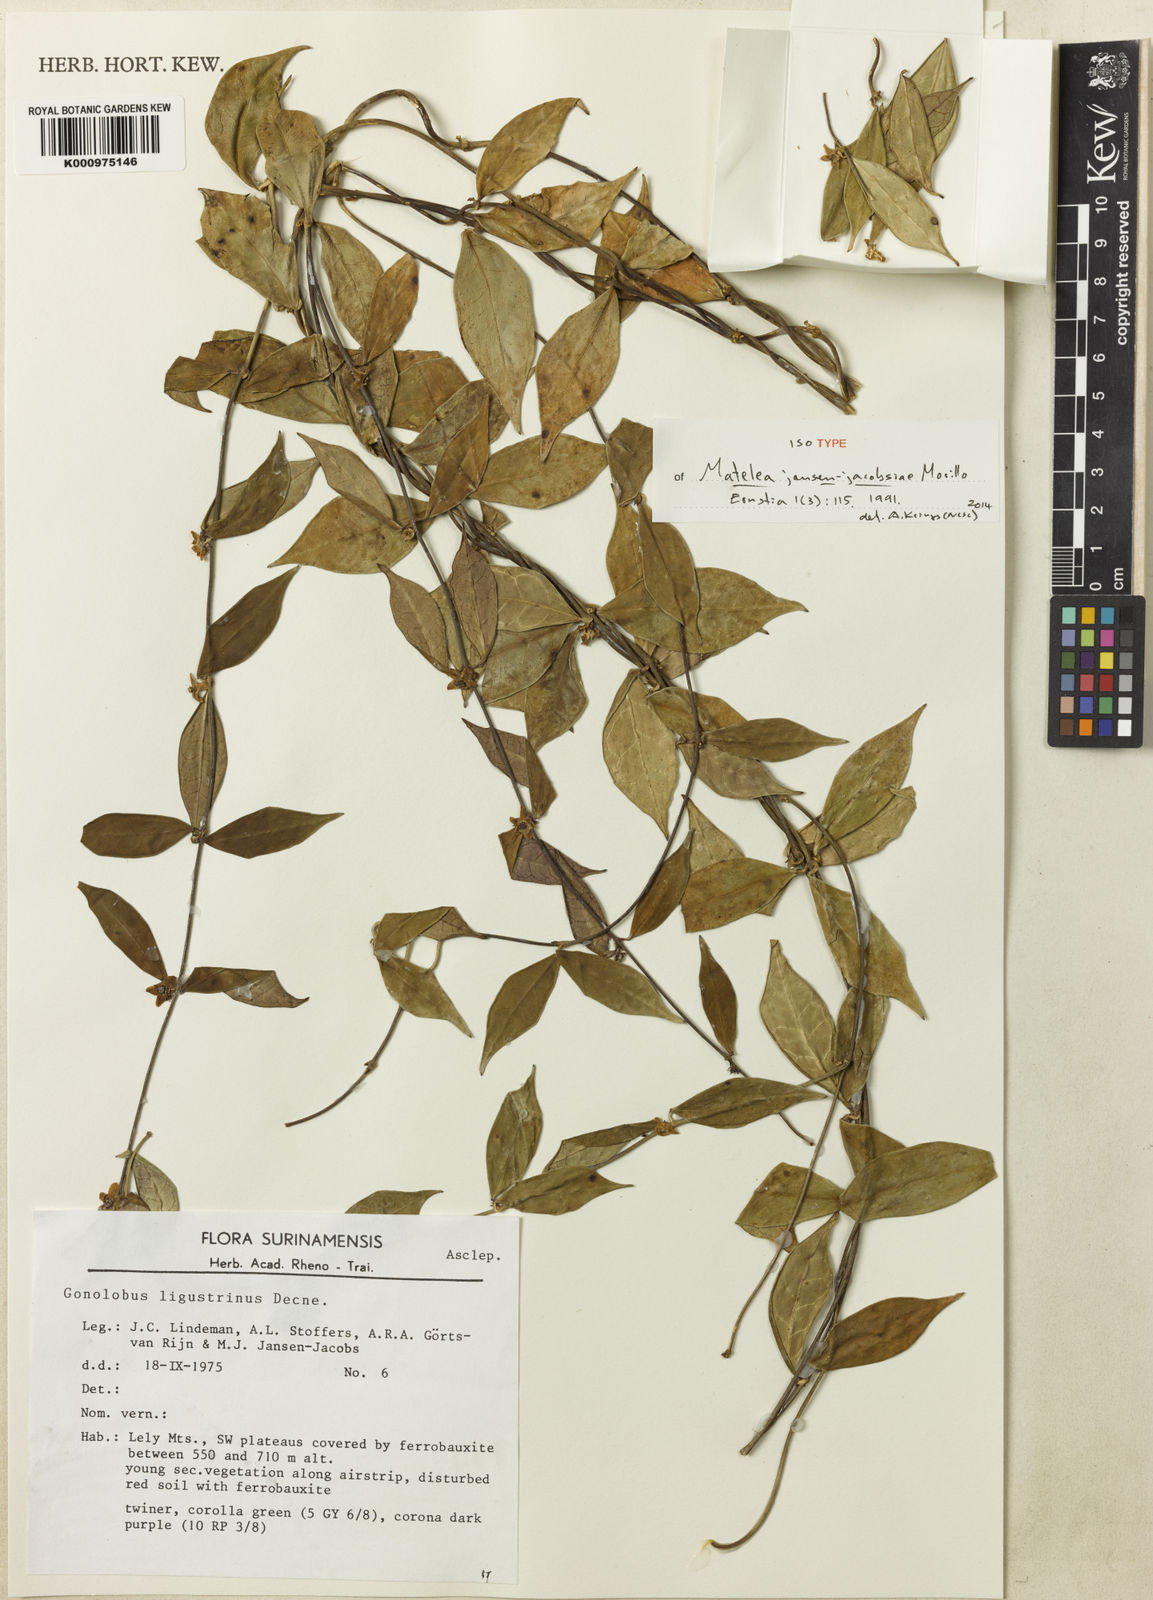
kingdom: Plantae
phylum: Tracheophyta
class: Magnoliopsida
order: Gentianales
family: Apocynaceae
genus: Matelea
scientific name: Matelea jansen-jacobsiae
